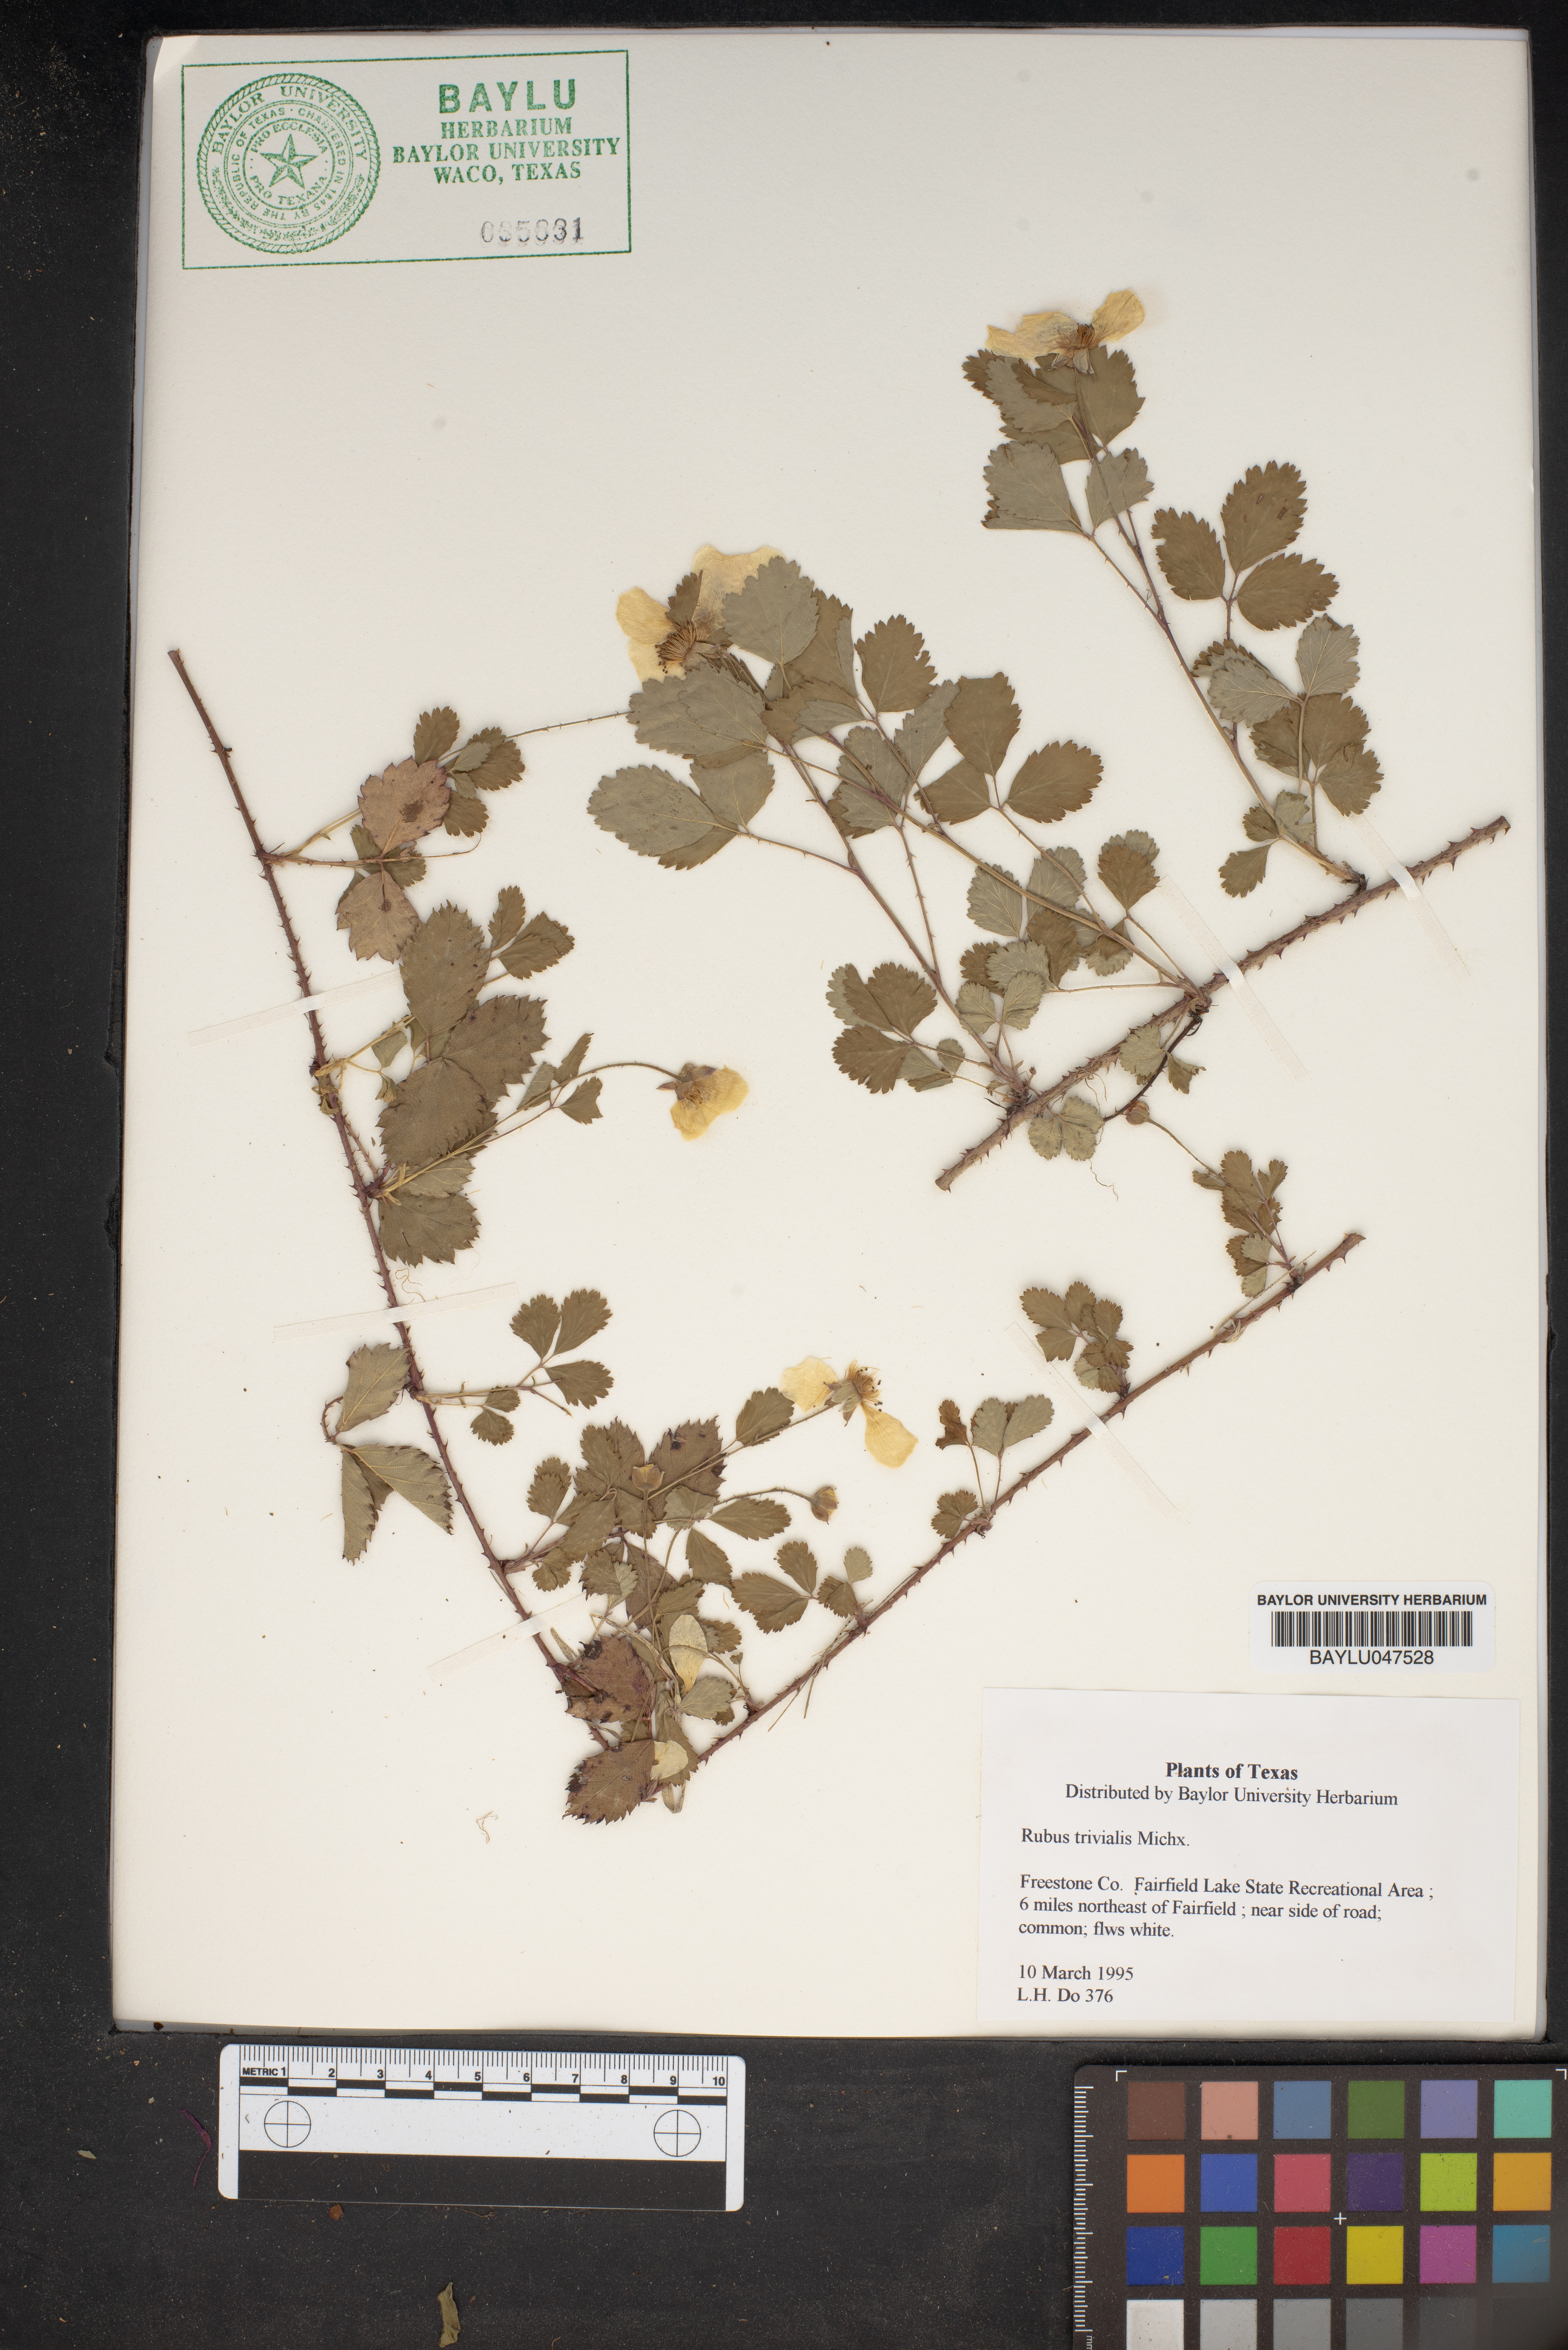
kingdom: Plantae
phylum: Tracheophyta
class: Magnoliopsida
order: Rosales
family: Rosaceae
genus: Rubus
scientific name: Rubus trivialis
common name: Southern dewberry
